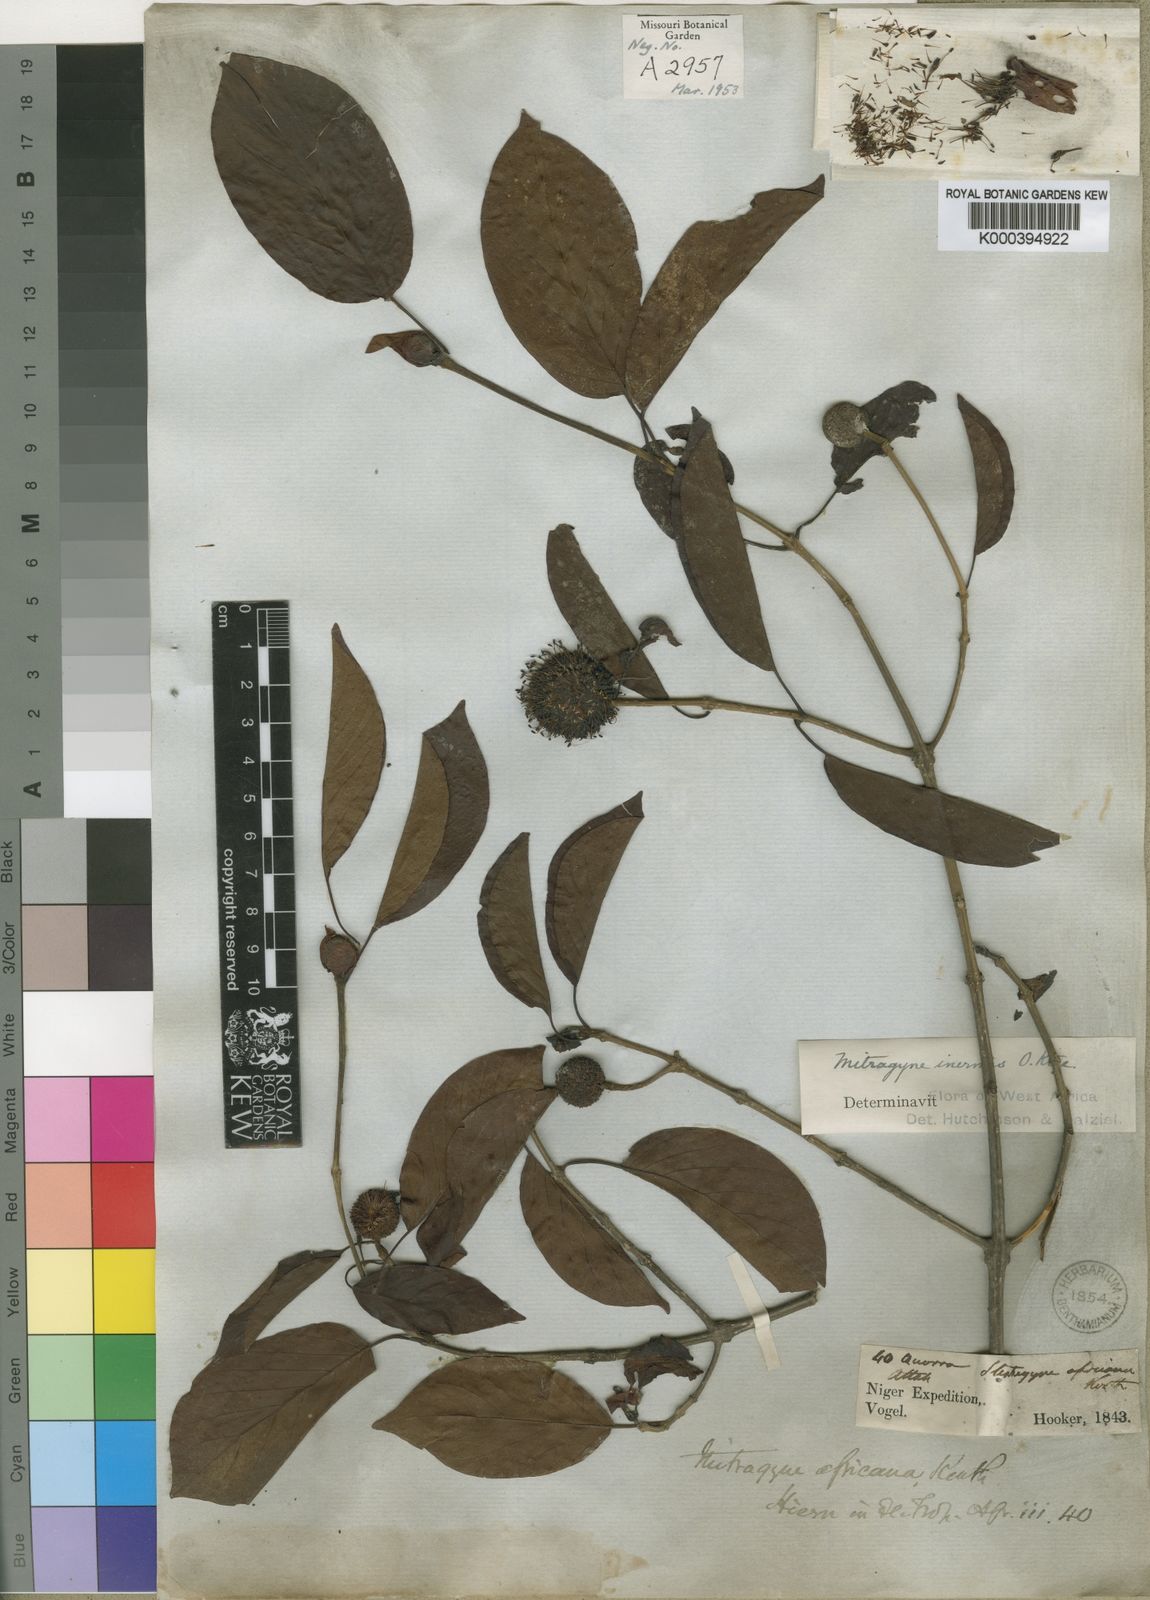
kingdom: Plantae
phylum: Tracheophyta
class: Magnoliopsida
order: Gentianales
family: Rubiaceae
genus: Mitragyna
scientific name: Mitragyna inermis
